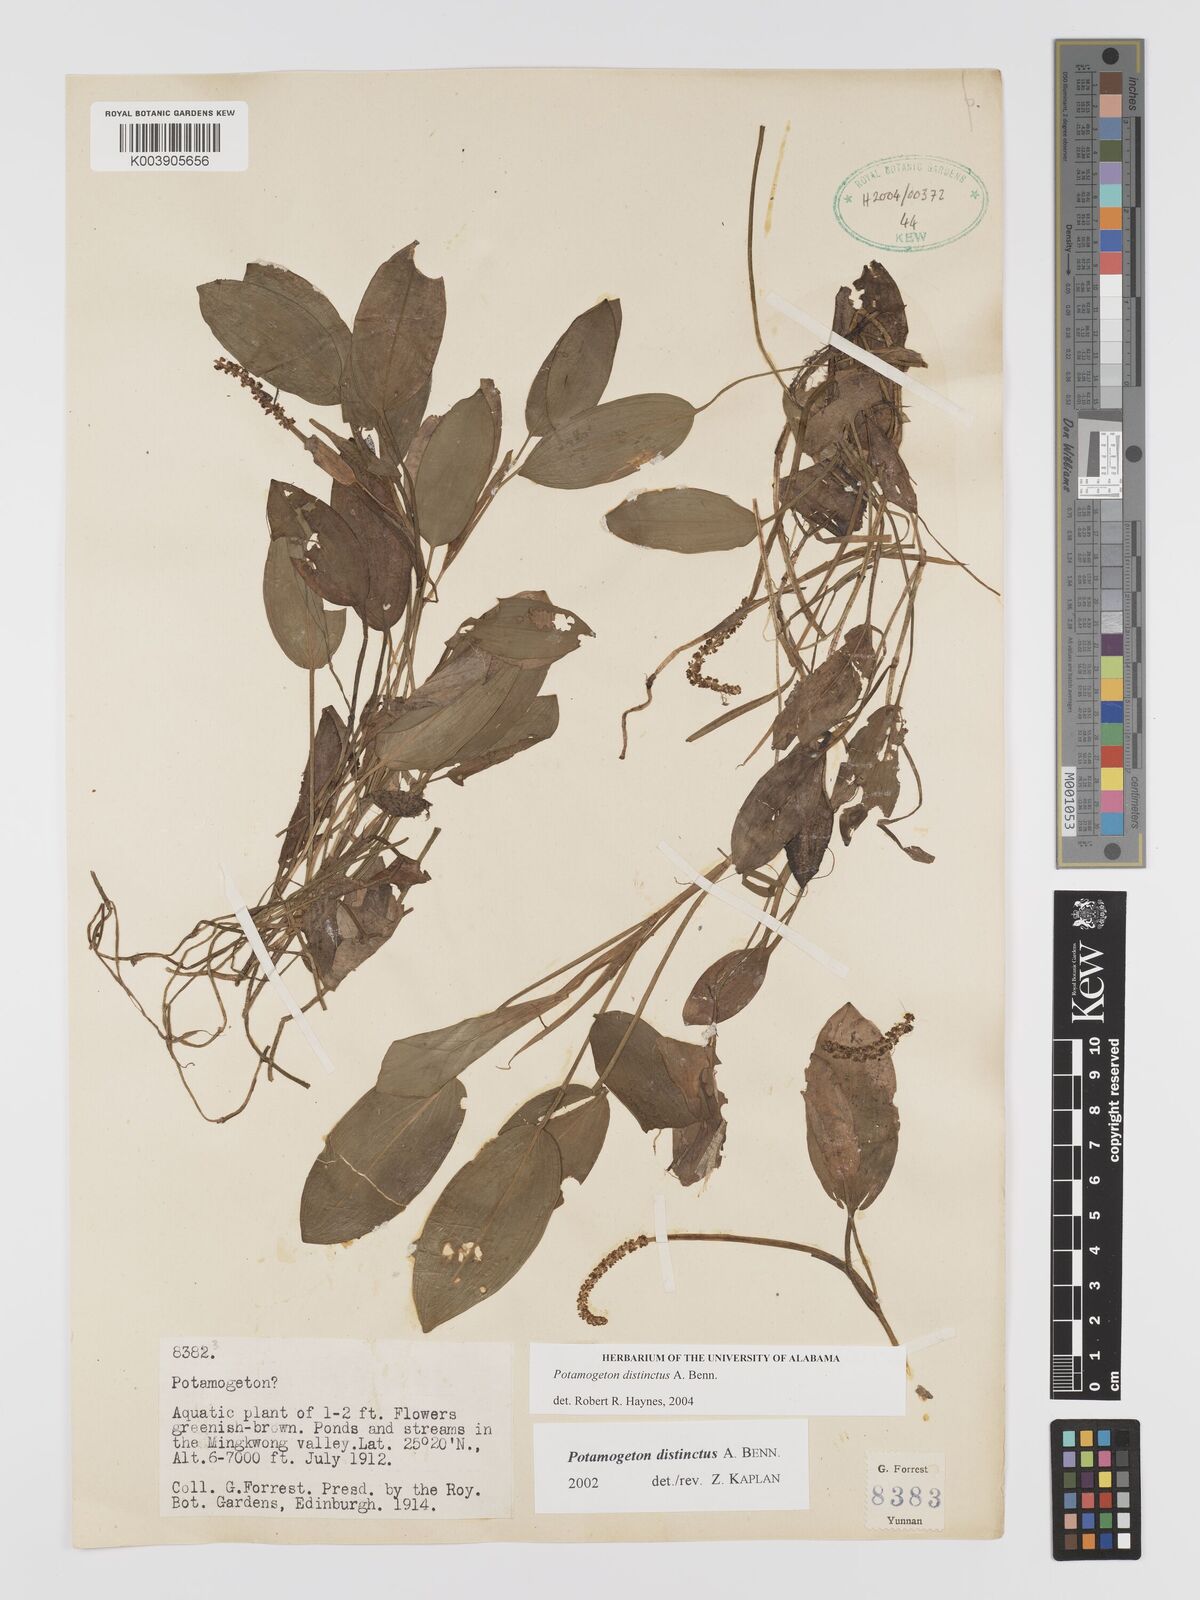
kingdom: Plantae
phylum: Tracheophyta
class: Liliopsida
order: Alismatales
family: Potamogetonaceae
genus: Potamogeton
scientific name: Potamogeton distinctus
